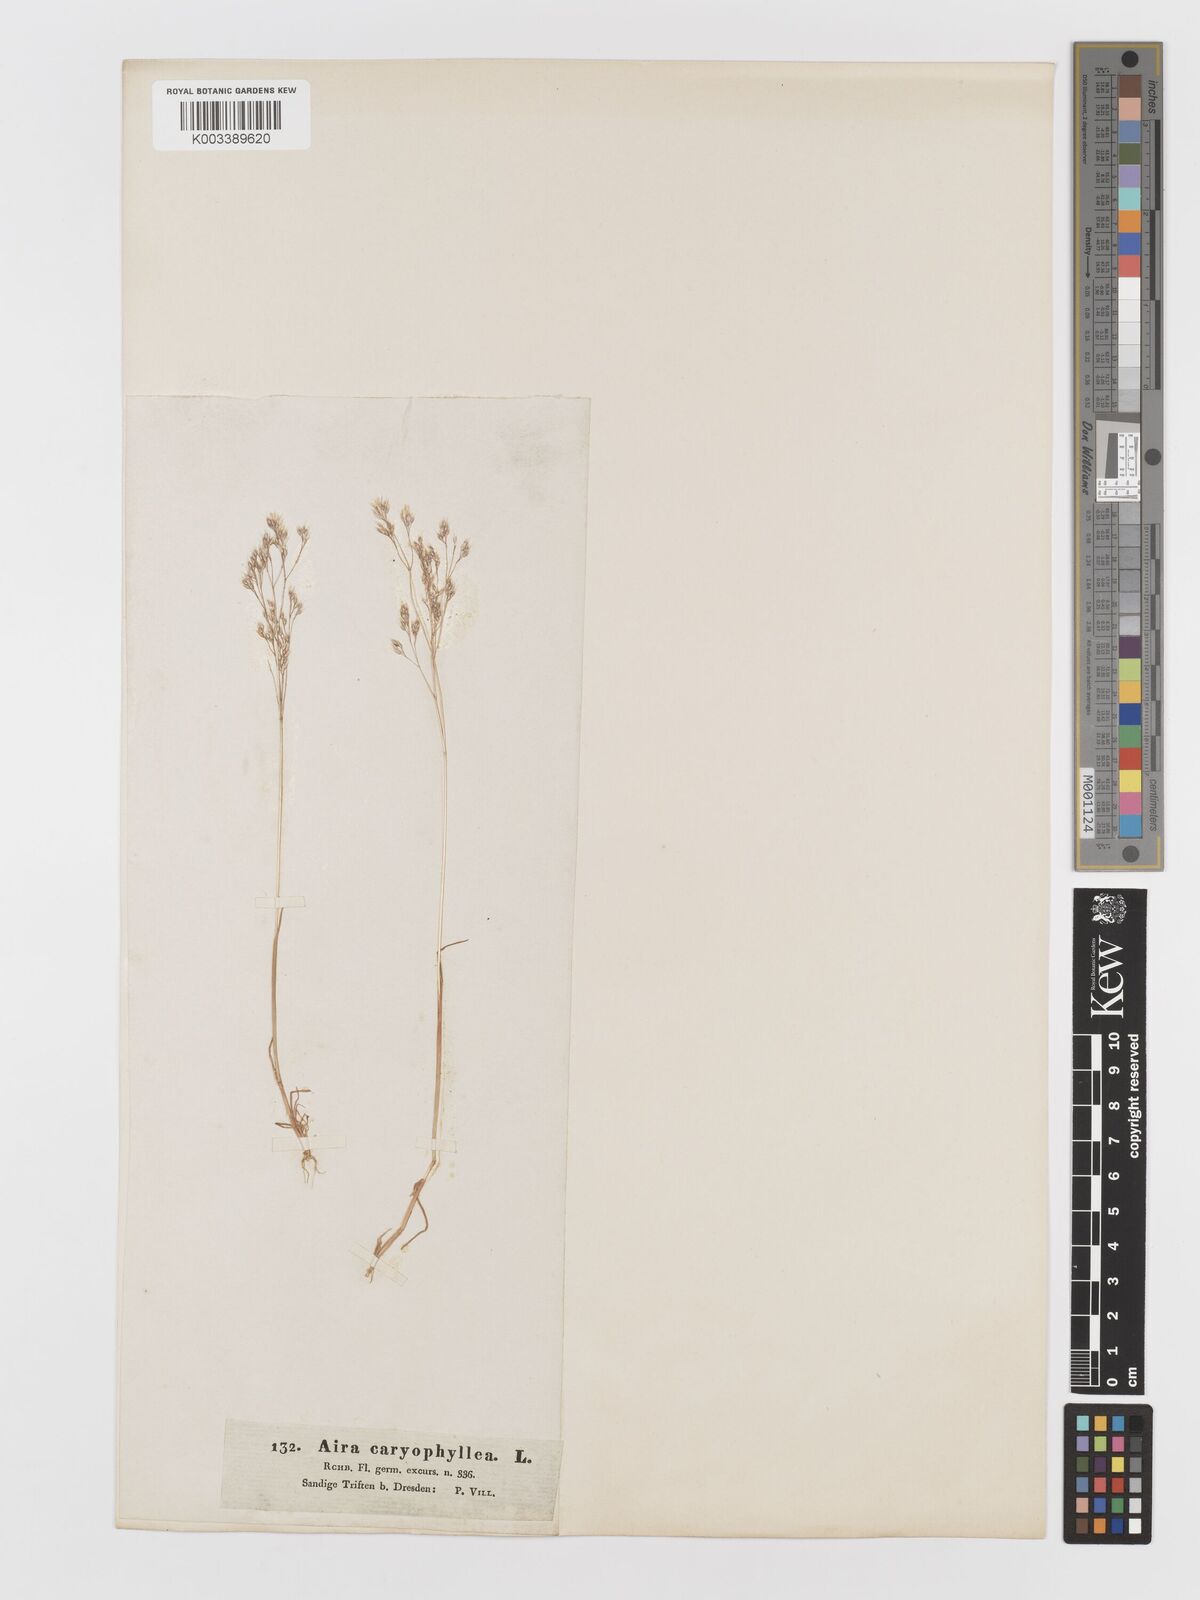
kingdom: Plantae
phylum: Tracheophyta
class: Liliopsida
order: Poales
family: Poaceae
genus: Aira
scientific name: Aira caryophyllea
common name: Silver hairgrass
